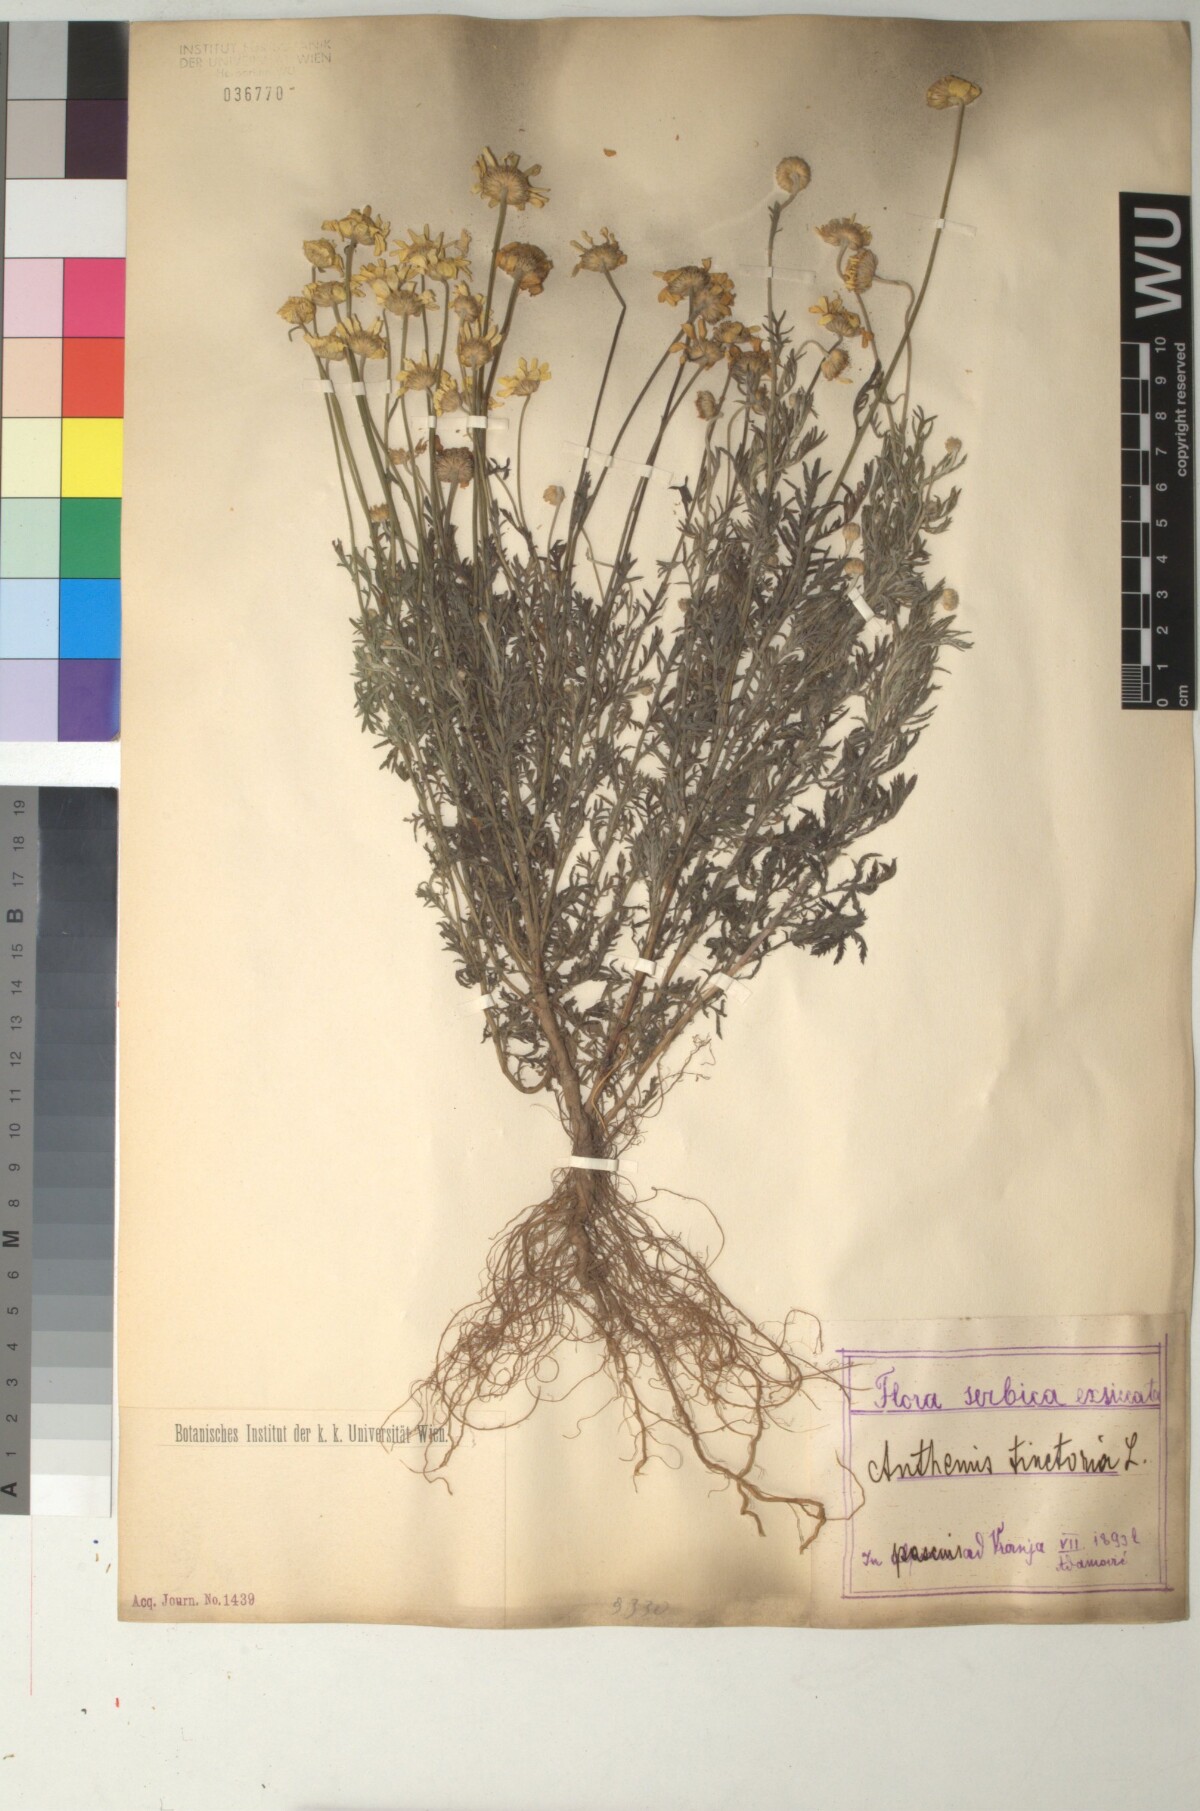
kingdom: Plantae
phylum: Tracheophyta
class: Magnoliopsida
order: Asterales
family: Asteraceae
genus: Cota
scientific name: Cota tinctoria
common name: Golden chamomile
